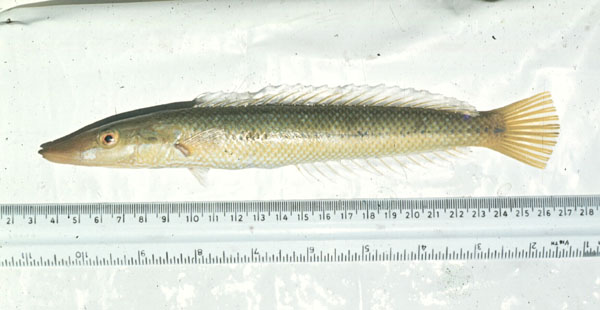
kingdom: Animalia
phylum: Chordata
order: Perciformes
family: Labridae
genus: Cheilio
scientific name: Cheilio inermis
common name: Cigar wrasse
